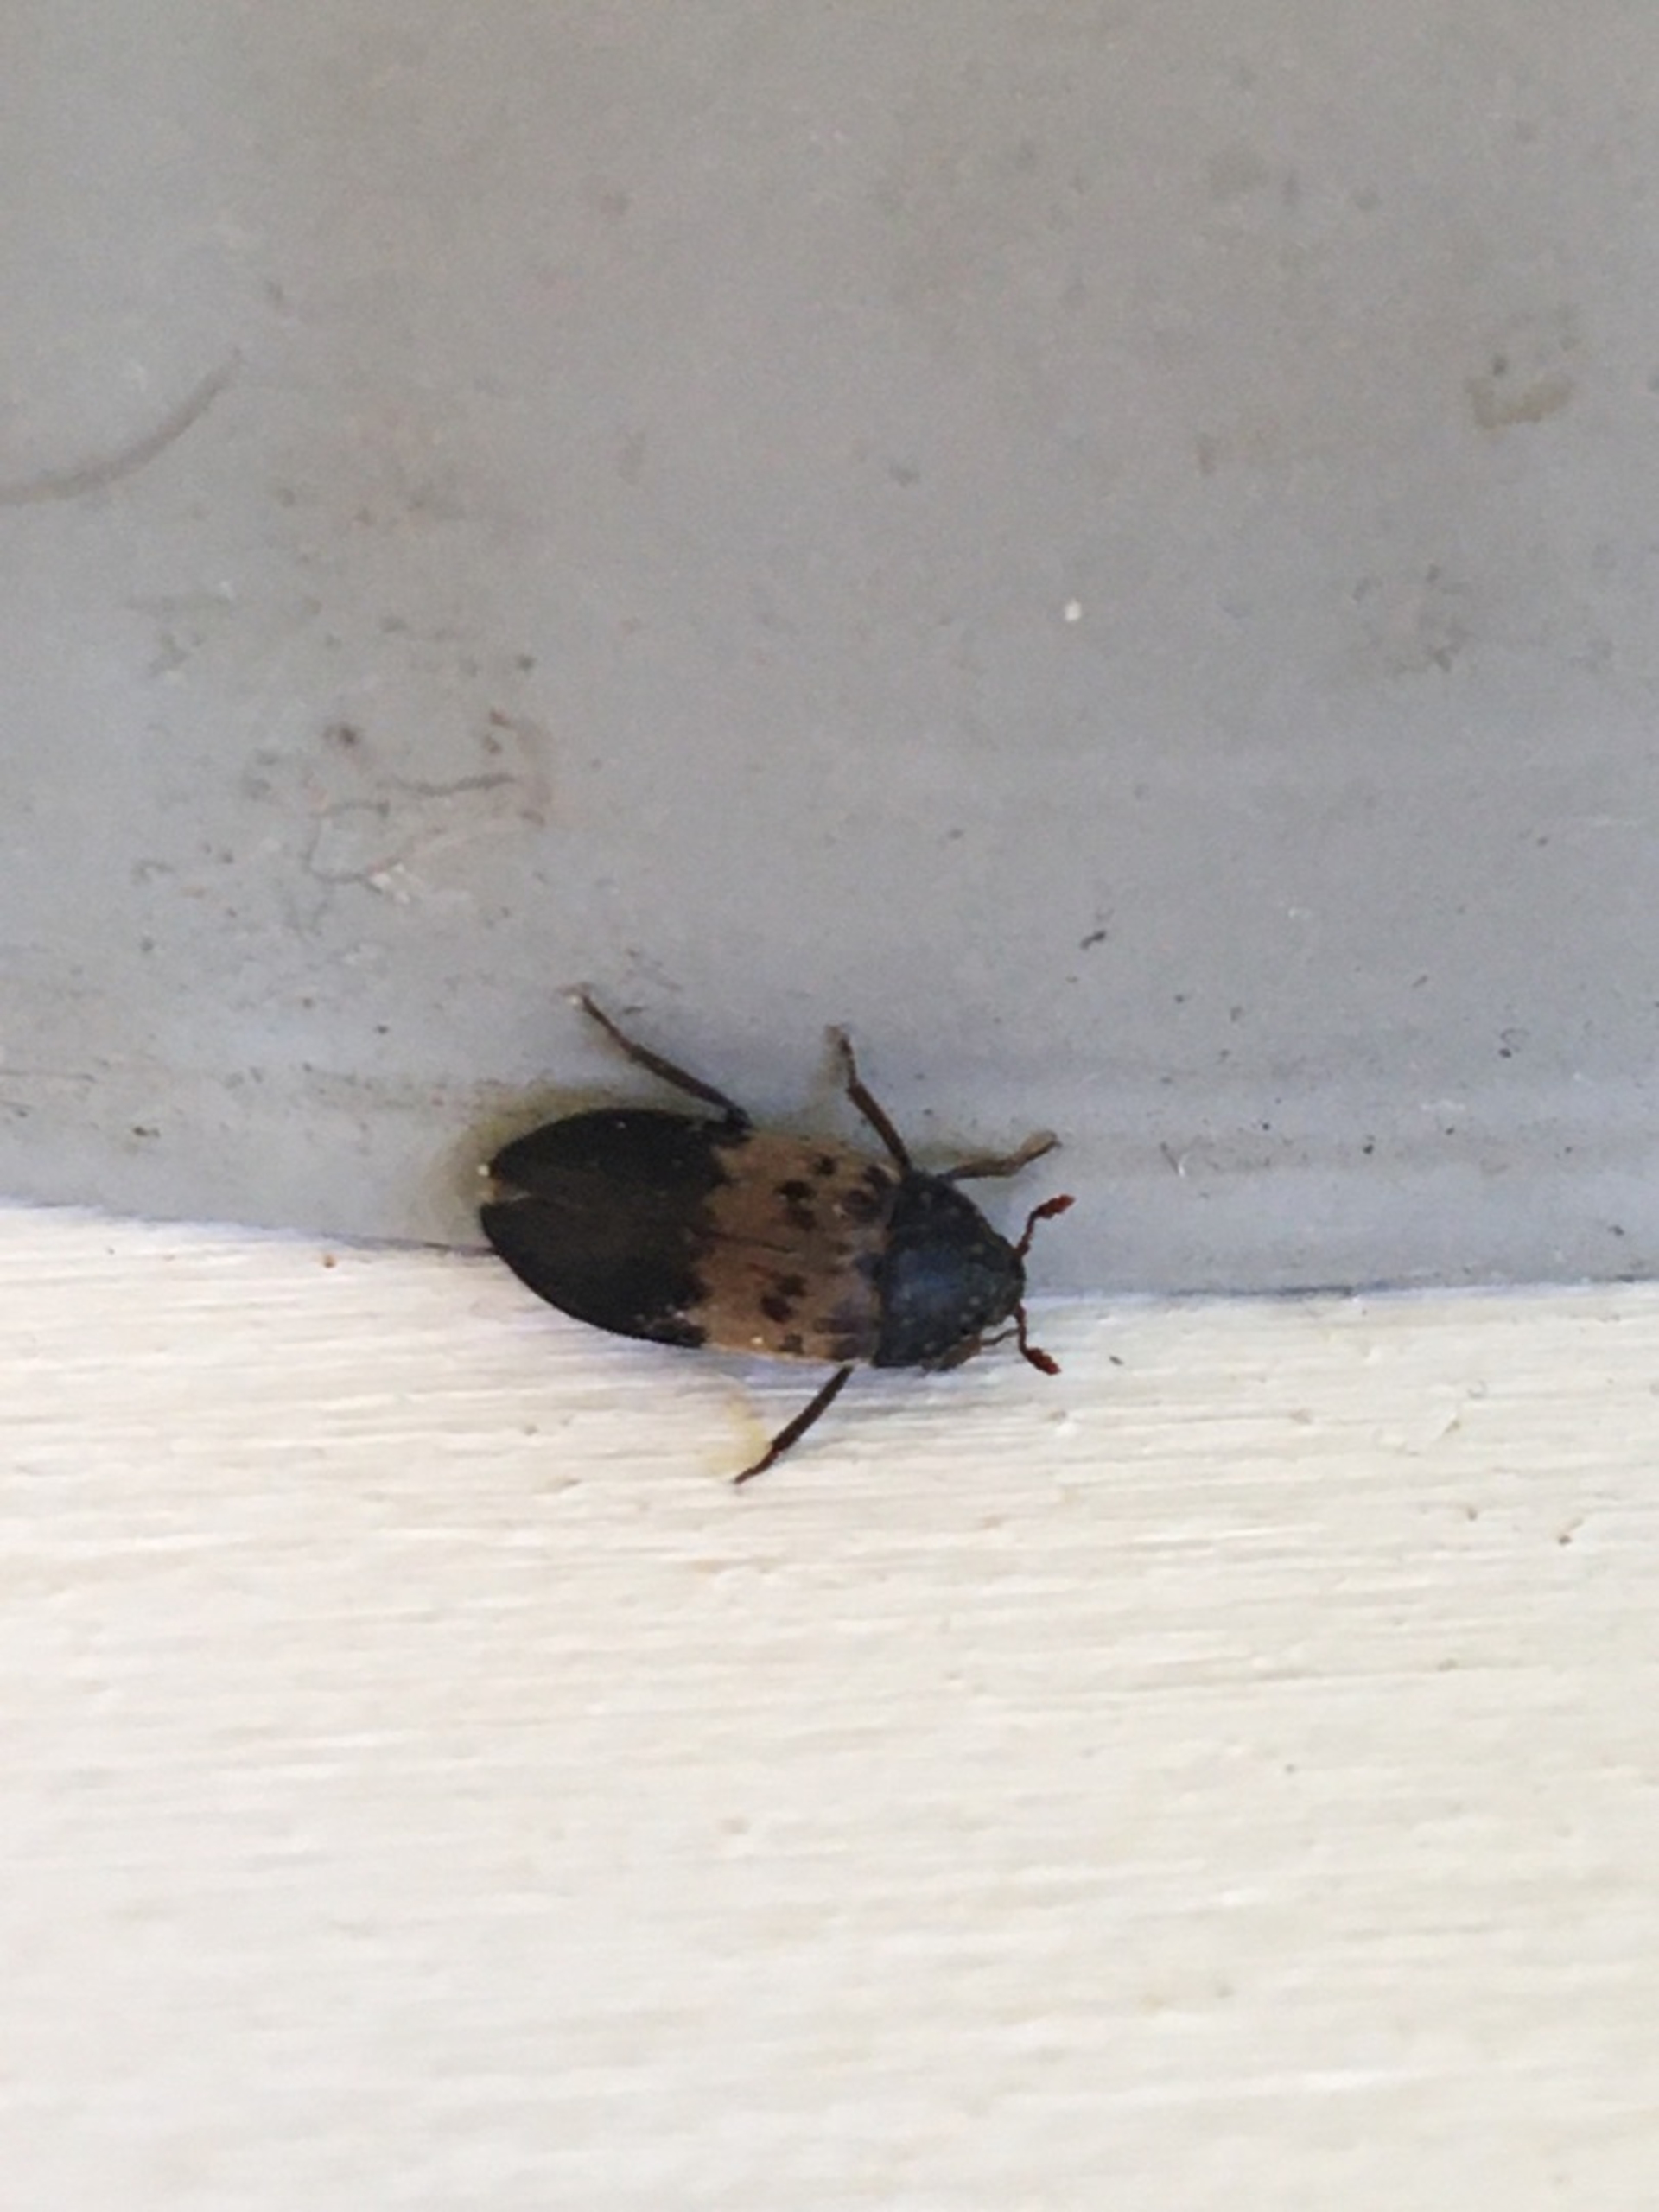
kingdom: Animalia
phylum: Arthropoda
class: Insecta
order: Coleoptera
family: Dermestidae
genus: Dermestes
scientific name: Dermestes lardarius
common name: Flæskeklanner
